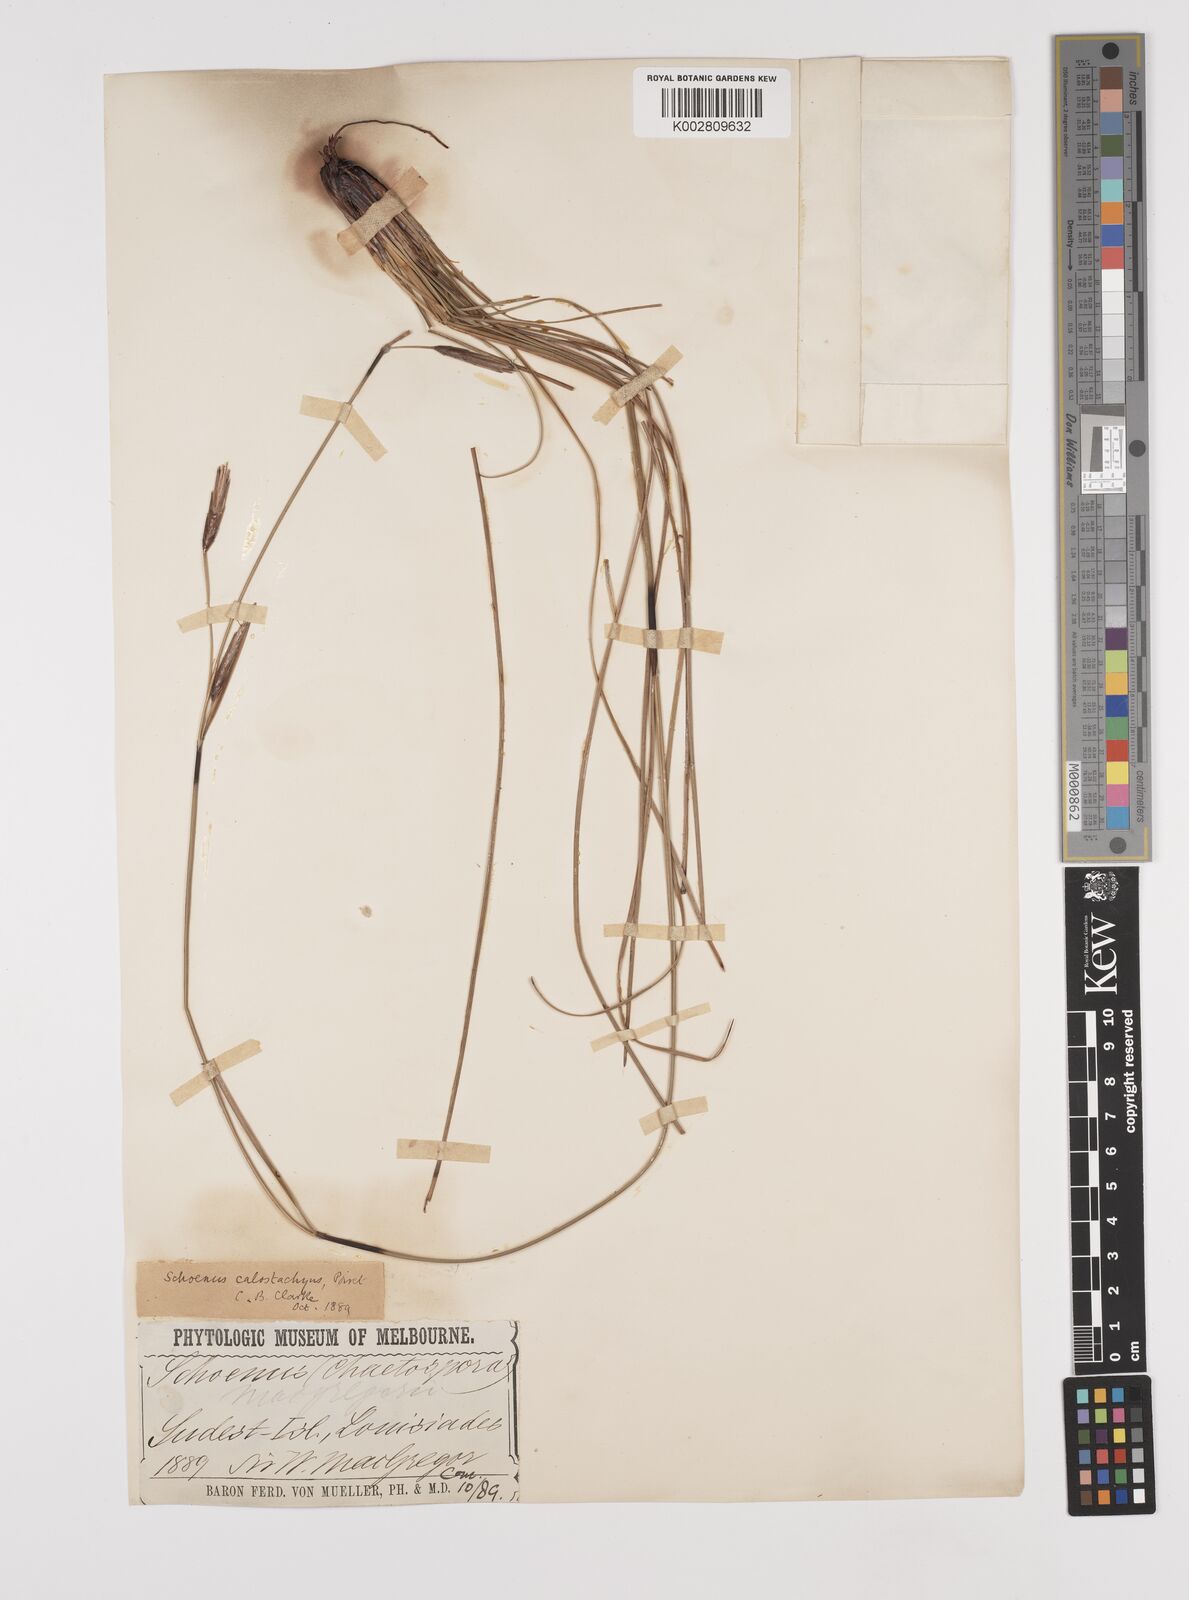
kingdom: Plantae
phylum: Tracheophyta
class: Liliopsida
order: Poales
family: Cyperaceae
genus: Schoenus
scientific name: Schoenus calostachyus
